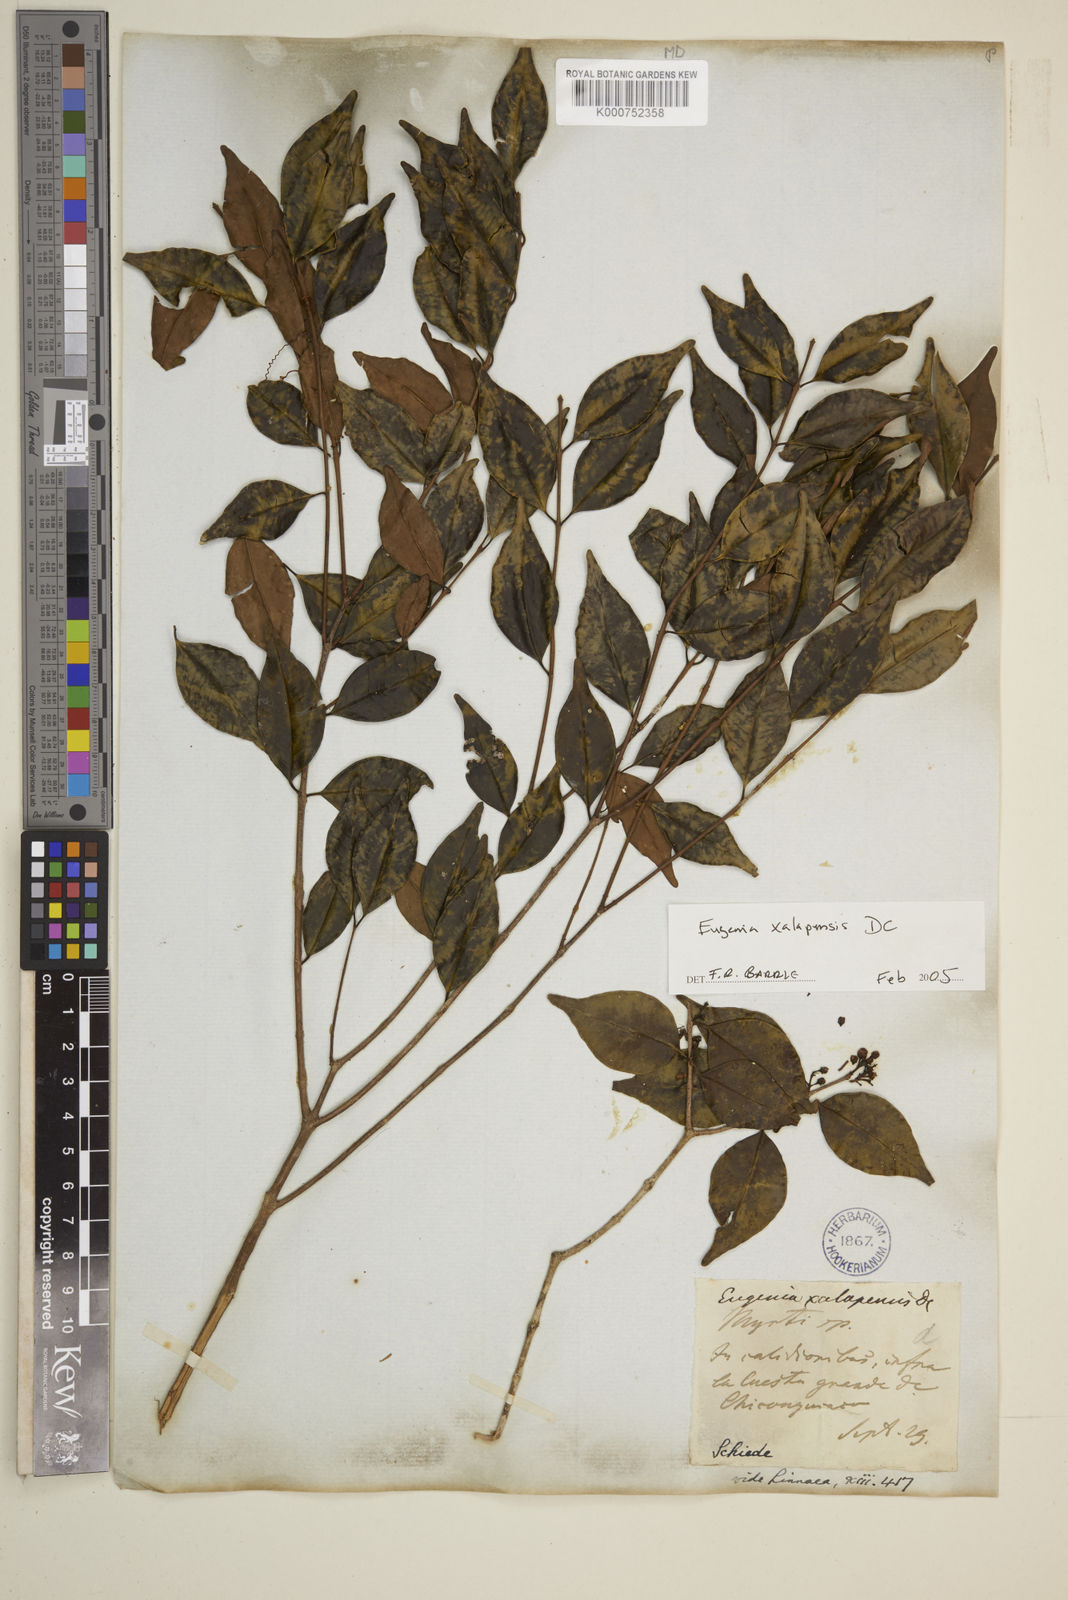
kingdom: Plantae
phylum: Tracheophyta
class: Magnoliopsida
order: Myrtales
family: Myrtaceae
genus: Eugenia
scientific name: Eugenia xalapensis
